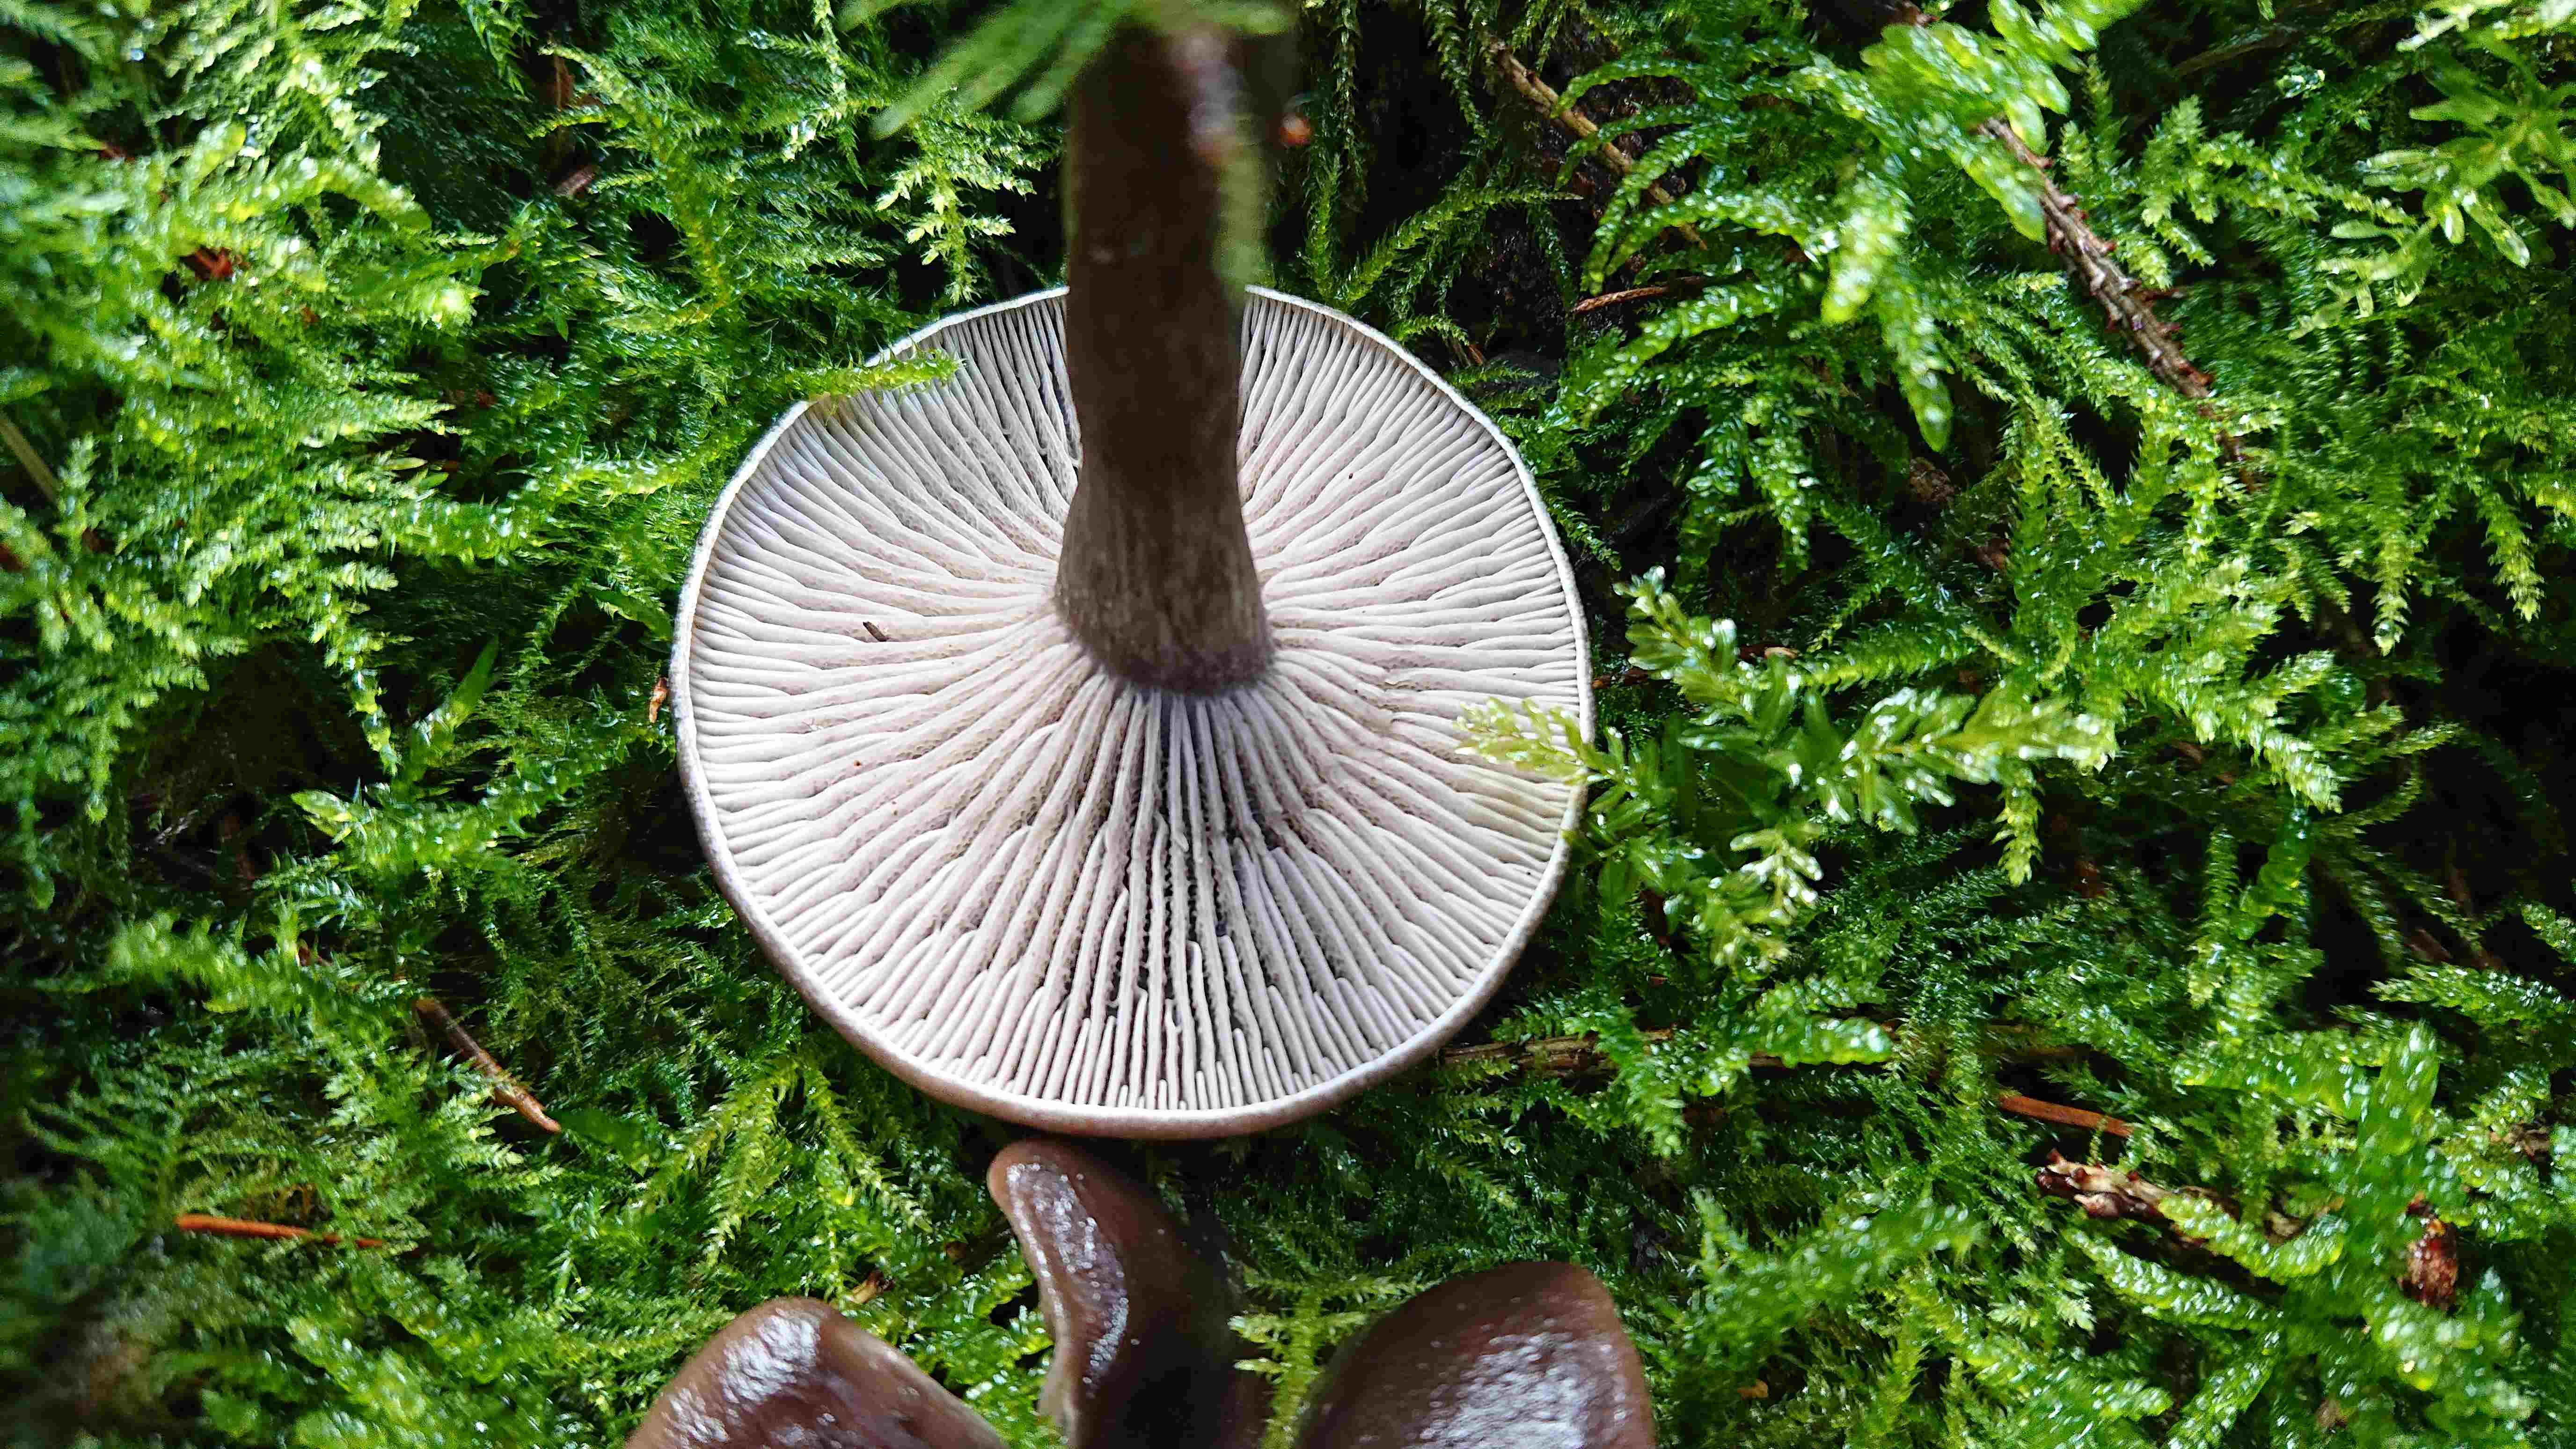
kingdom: Fungi
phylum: Basidiomycota
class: Agaricomycetes
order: Agaricales
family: Pseudoclitocybaceae
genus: Pseudoclitocybe
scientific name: Pseudoclitocybe cyathiformis
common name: almindelig bægertragthat
